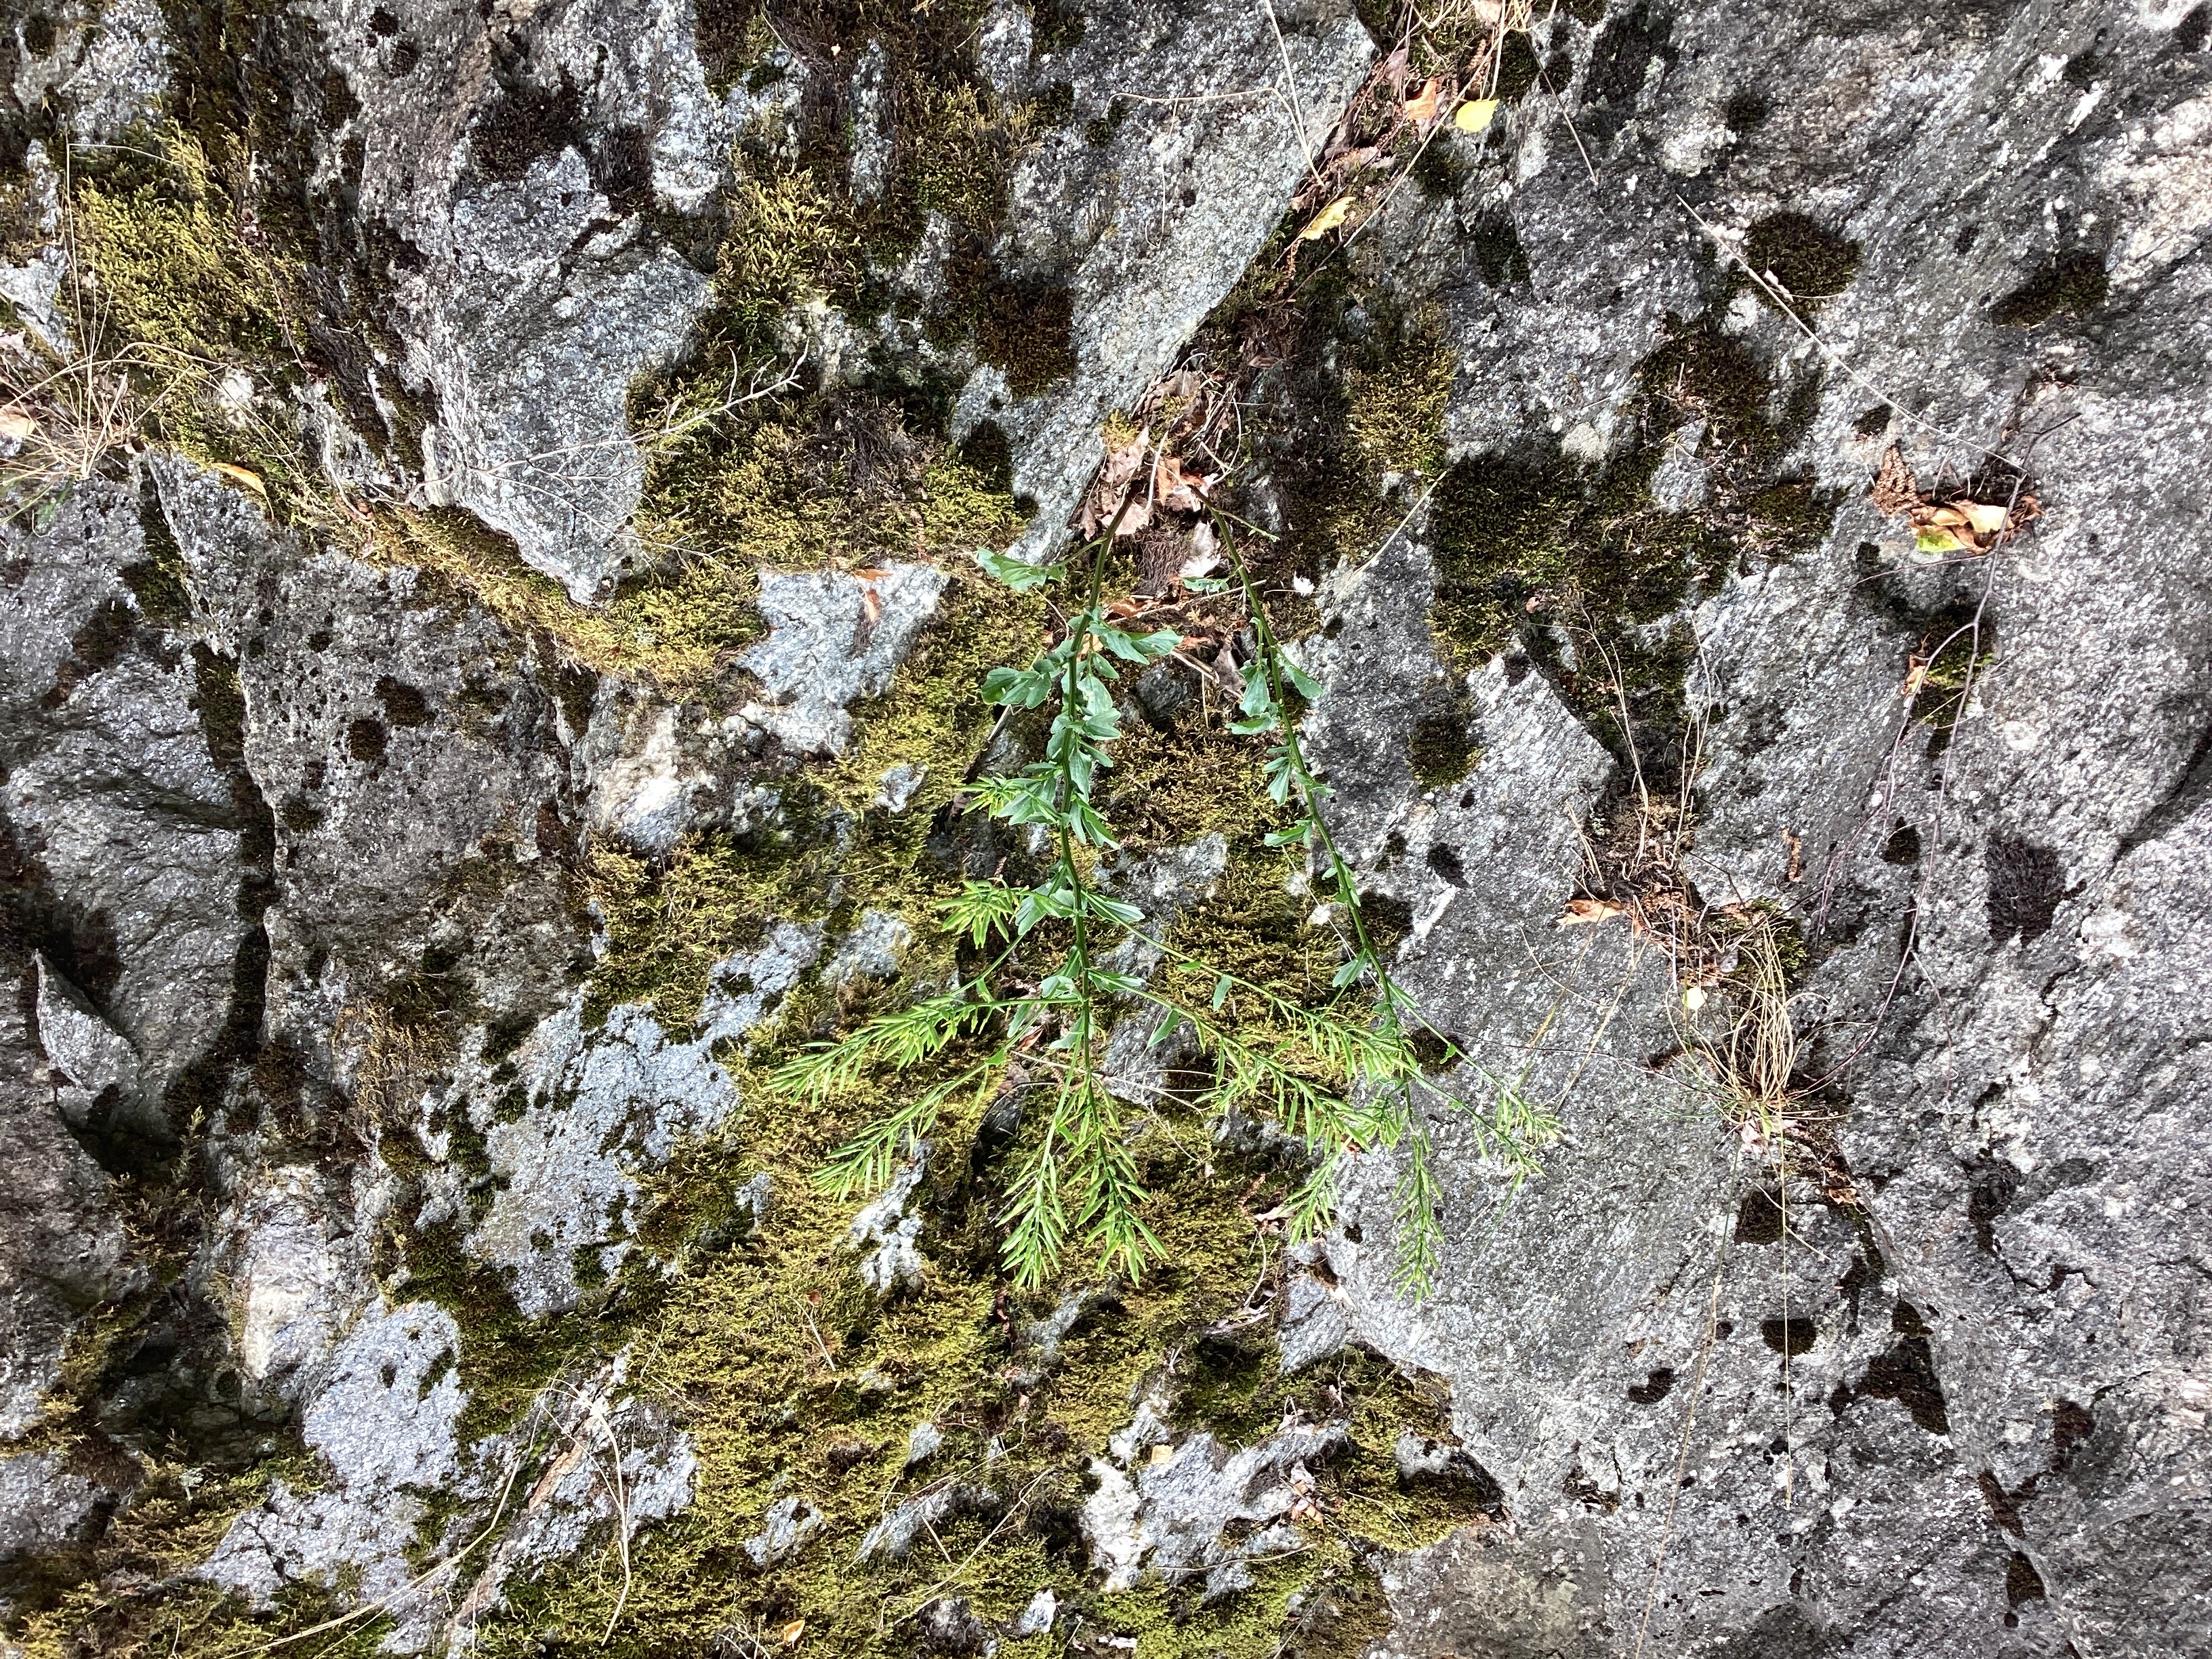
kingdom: Plantae
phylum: Tracheophyta
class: Magnoliopsida
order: Brassicales
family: Brassicaceae
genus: Barbarea
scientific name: Barbarea vulgaris
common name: vinterkarse
